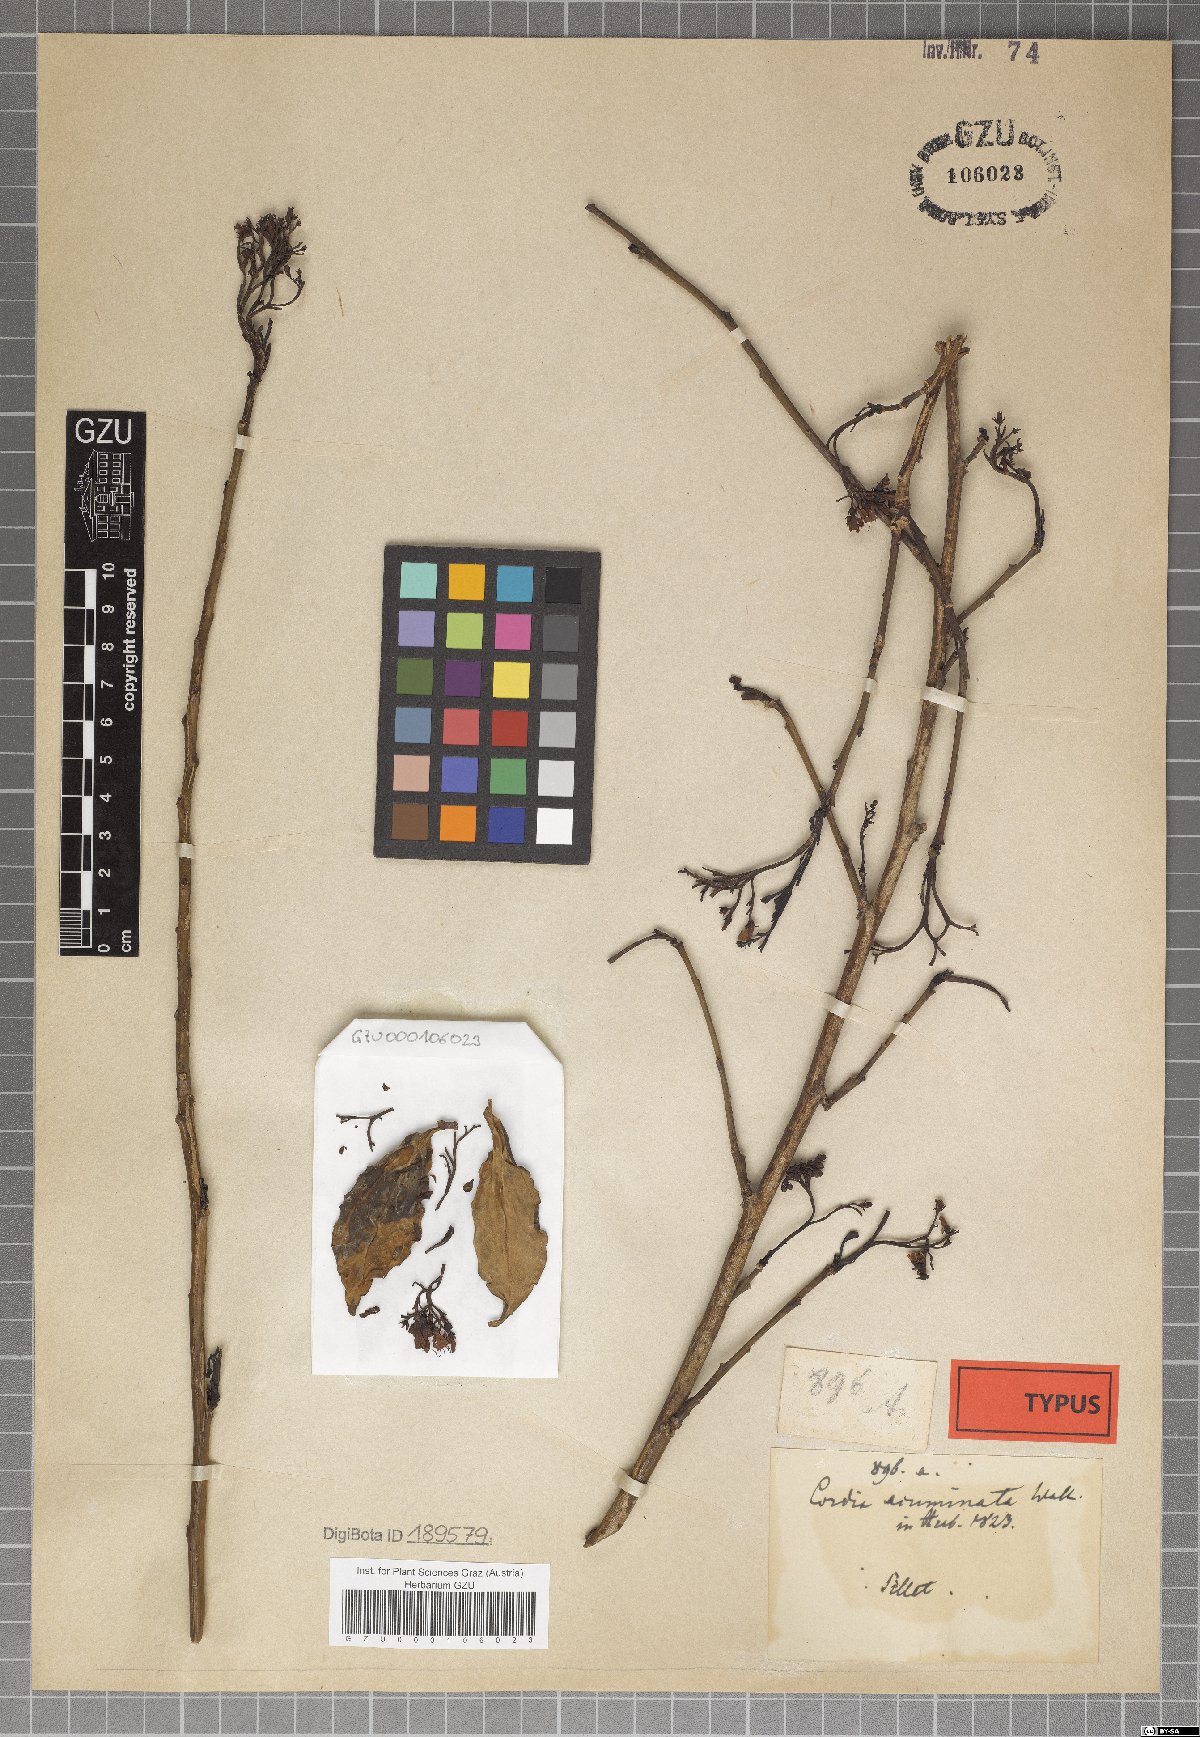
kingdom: Plantae
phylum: Tracheophyta
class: Magnoliopsida
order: Boraginales
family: Ehretiaceae
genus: Ehretia
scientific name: Ehretia wallichiana
